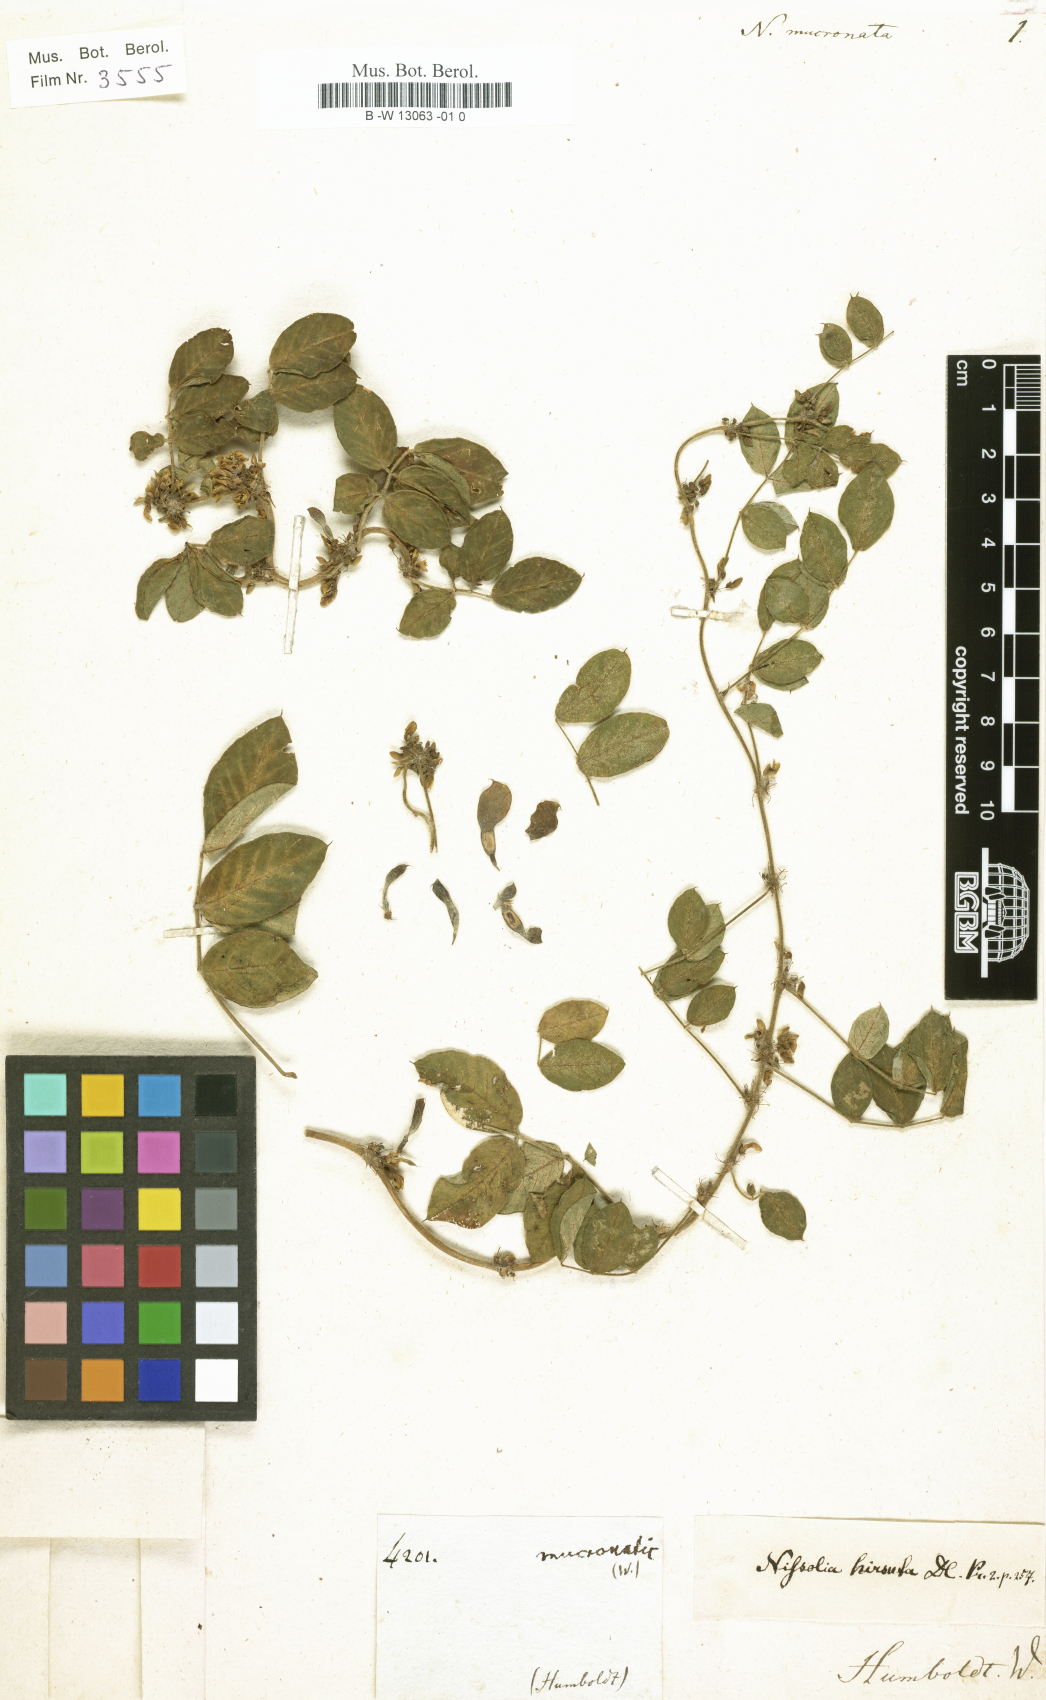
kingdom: Plantae
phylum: Tracheophyta
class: Magnoliopsida
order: Fabales
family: Fabaceae
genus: Nissolia
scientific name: Nissolia
